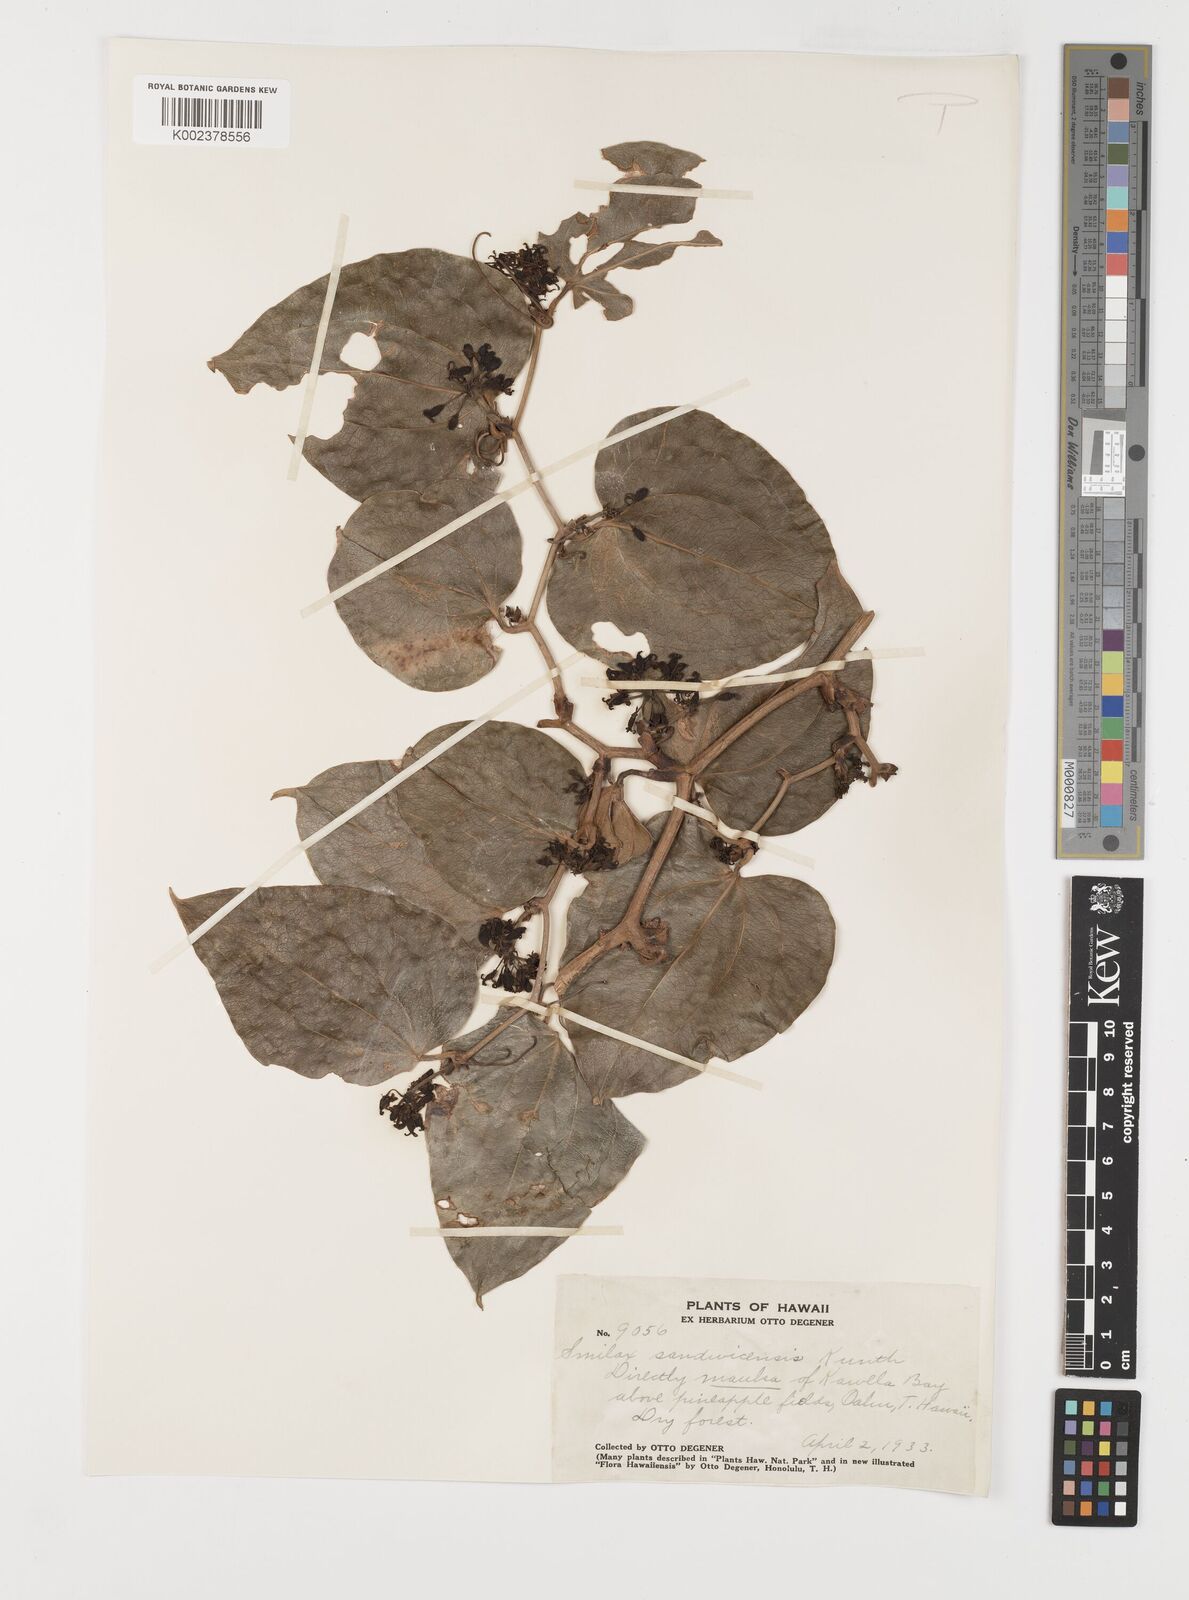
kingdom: Plantae
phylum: Tracheophyta
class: Liliopsida
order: Liliales
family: Smilacaceae
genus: Smilax
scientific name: Smilax melastomifolia
